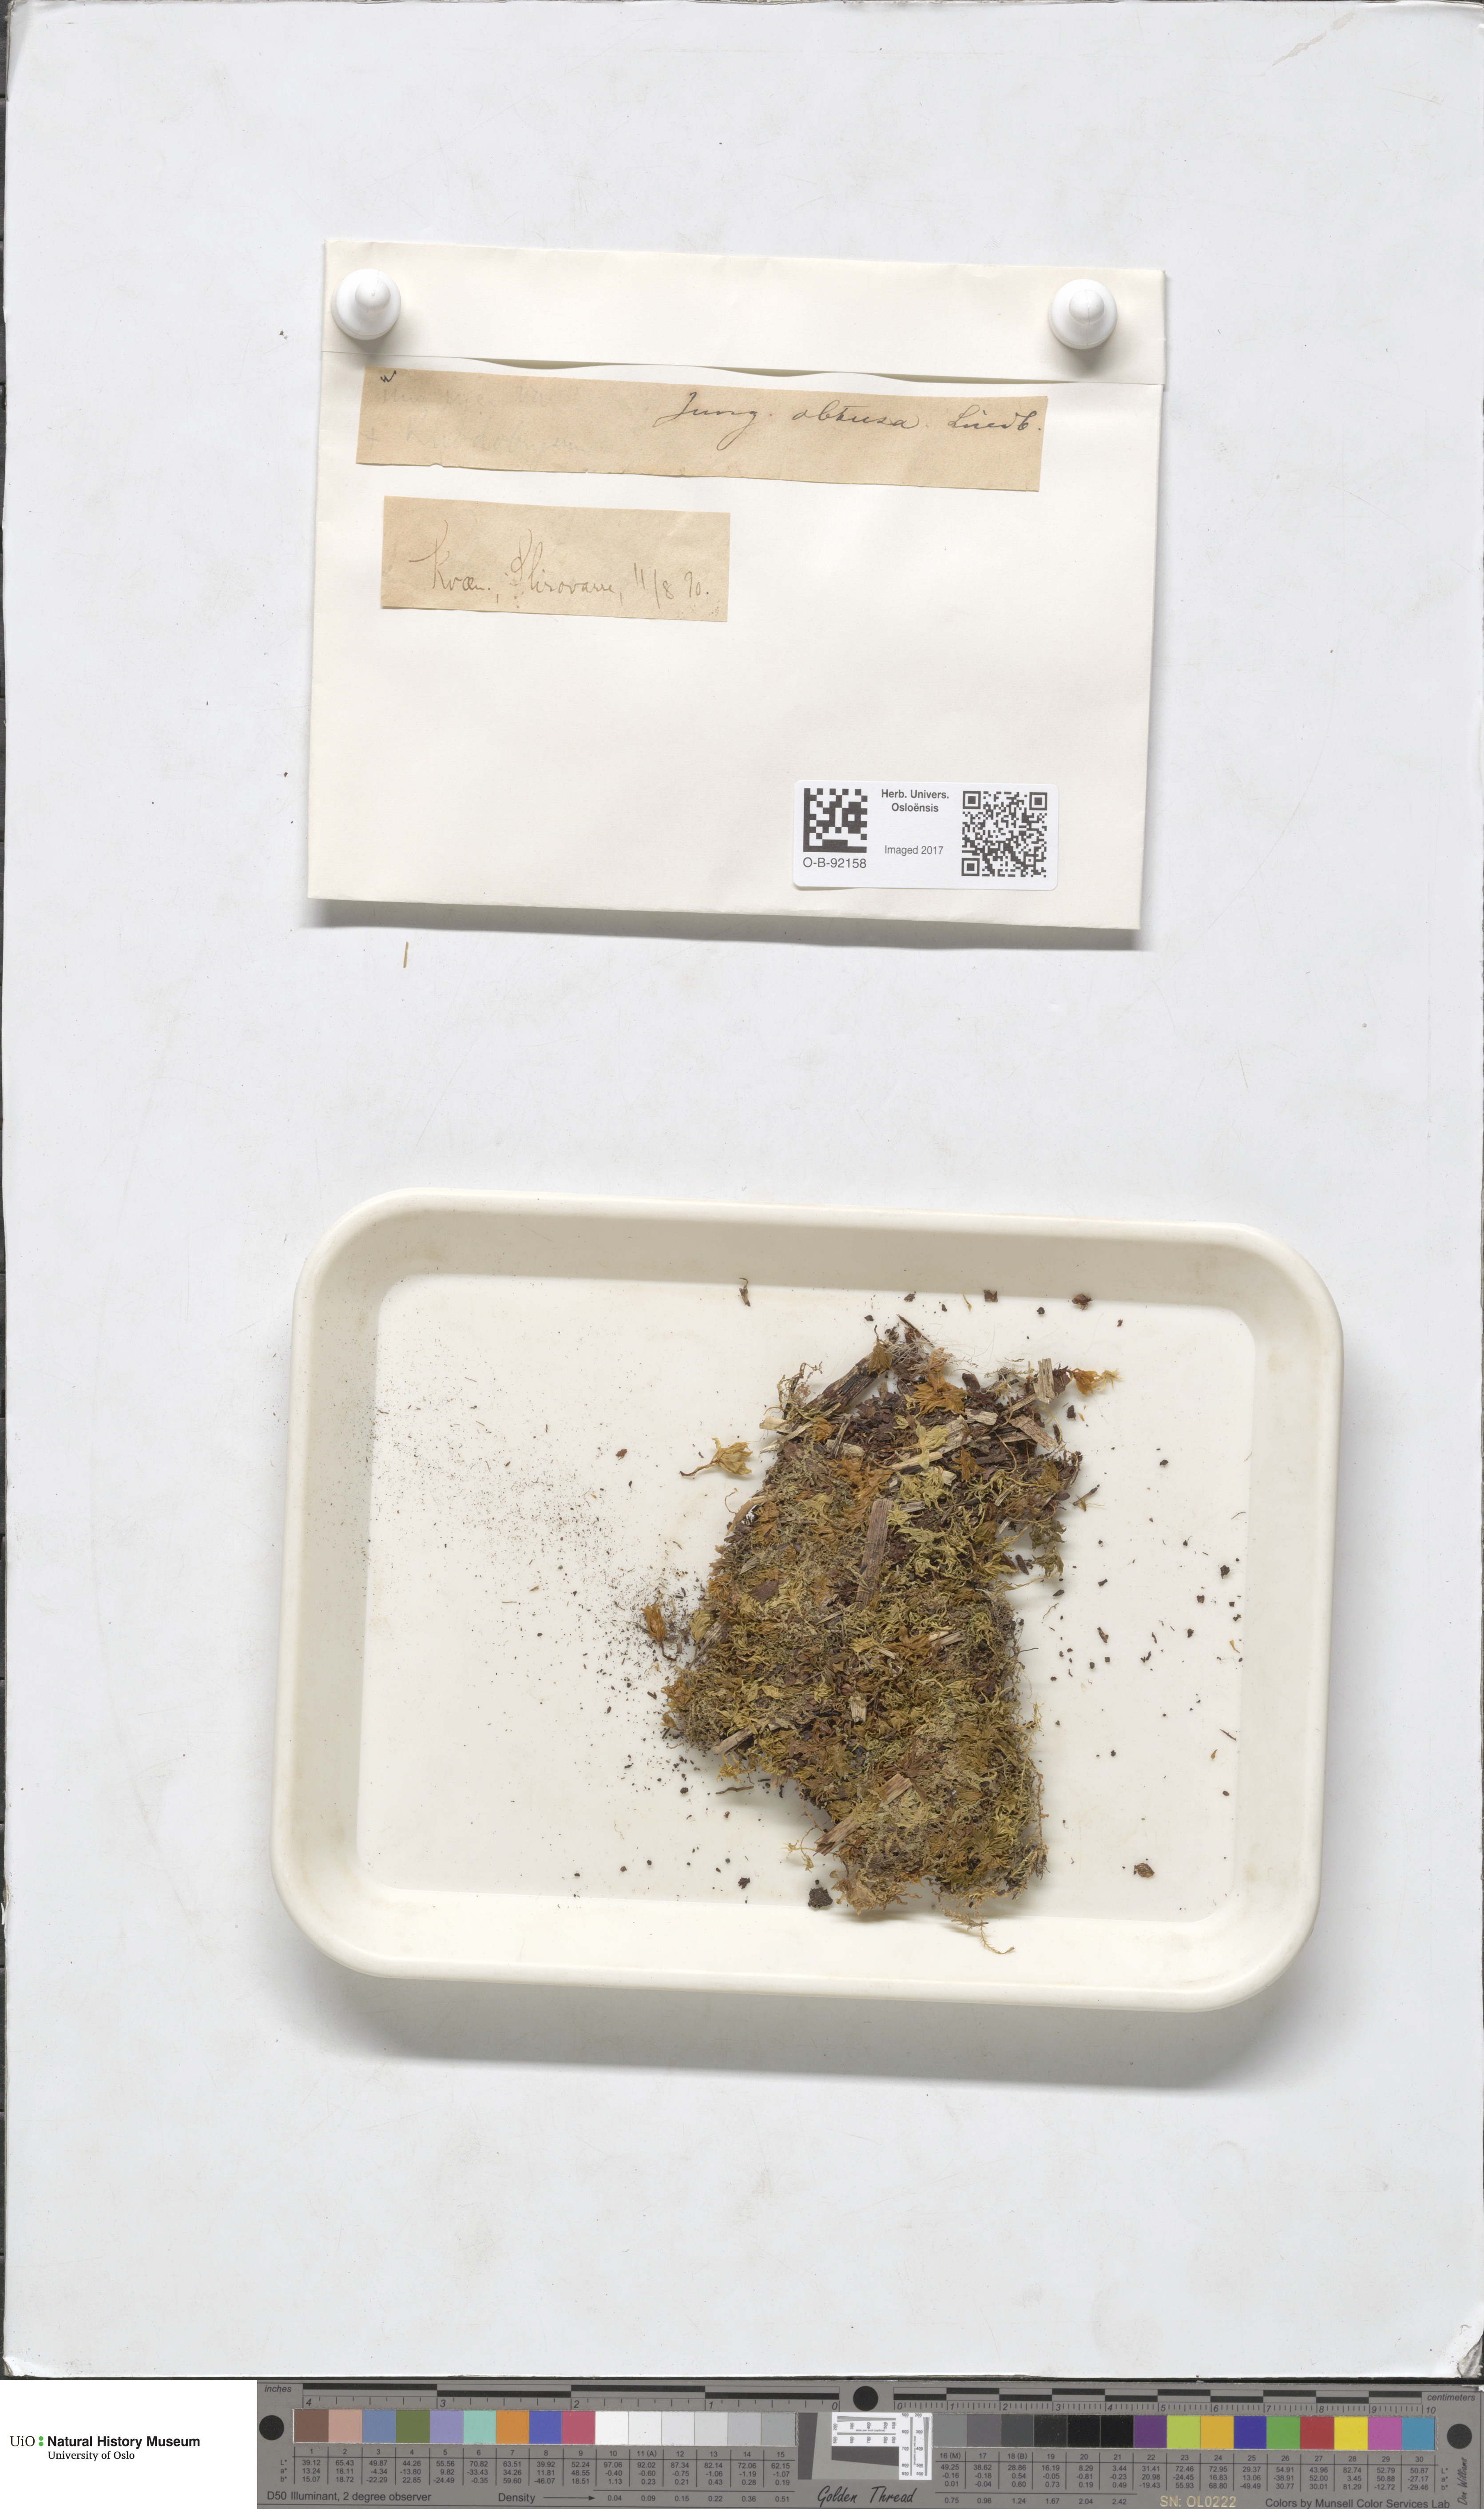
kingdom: Plantae
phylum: Marchantiophyta
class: Jungermanniopsida
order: Jungermanniales
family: Obtusifoliaceae
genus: Obtusifolium
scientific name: Obtusifolium obtusum
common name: Obtuse notchwort
